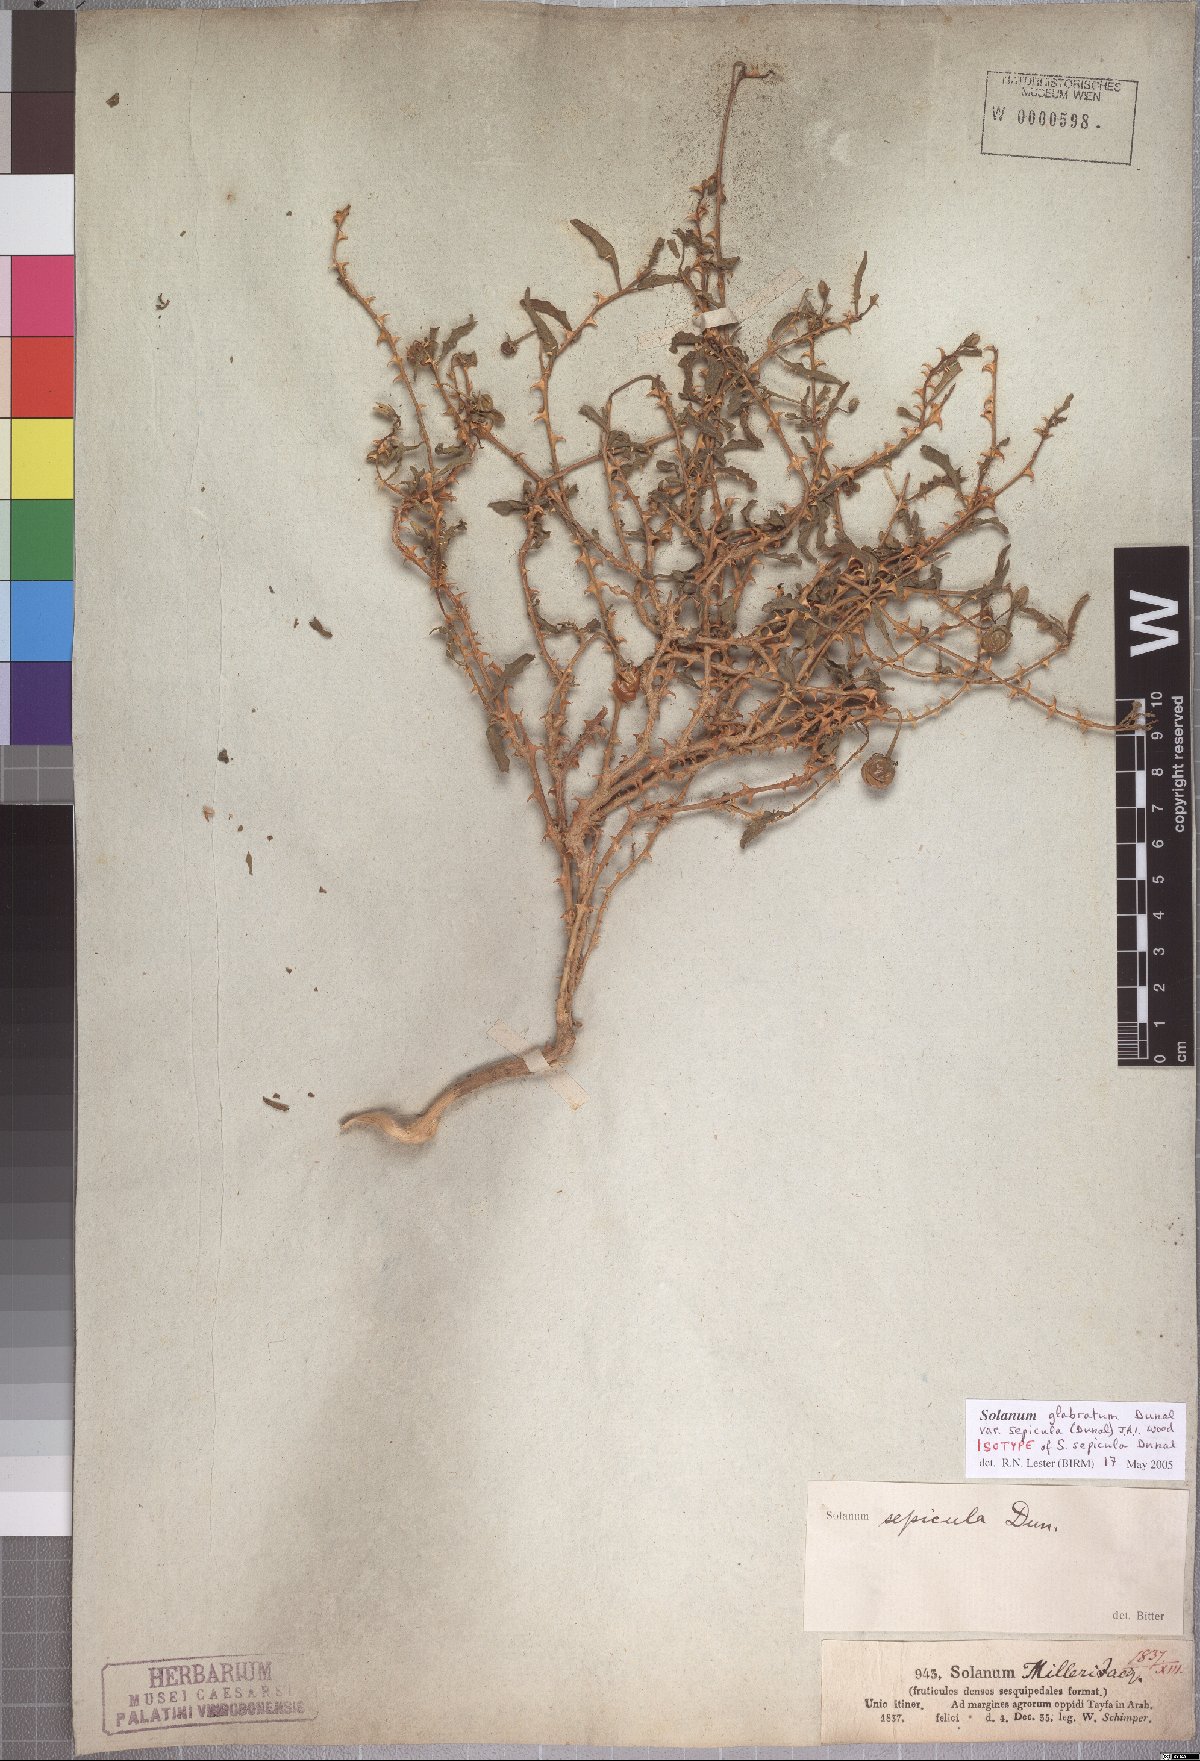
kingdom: Plantae
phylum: Tracheophyta
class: Magnoliopsida
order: Solanales
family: Solanaceae
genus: Solanum
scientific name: Solanum glabratum
